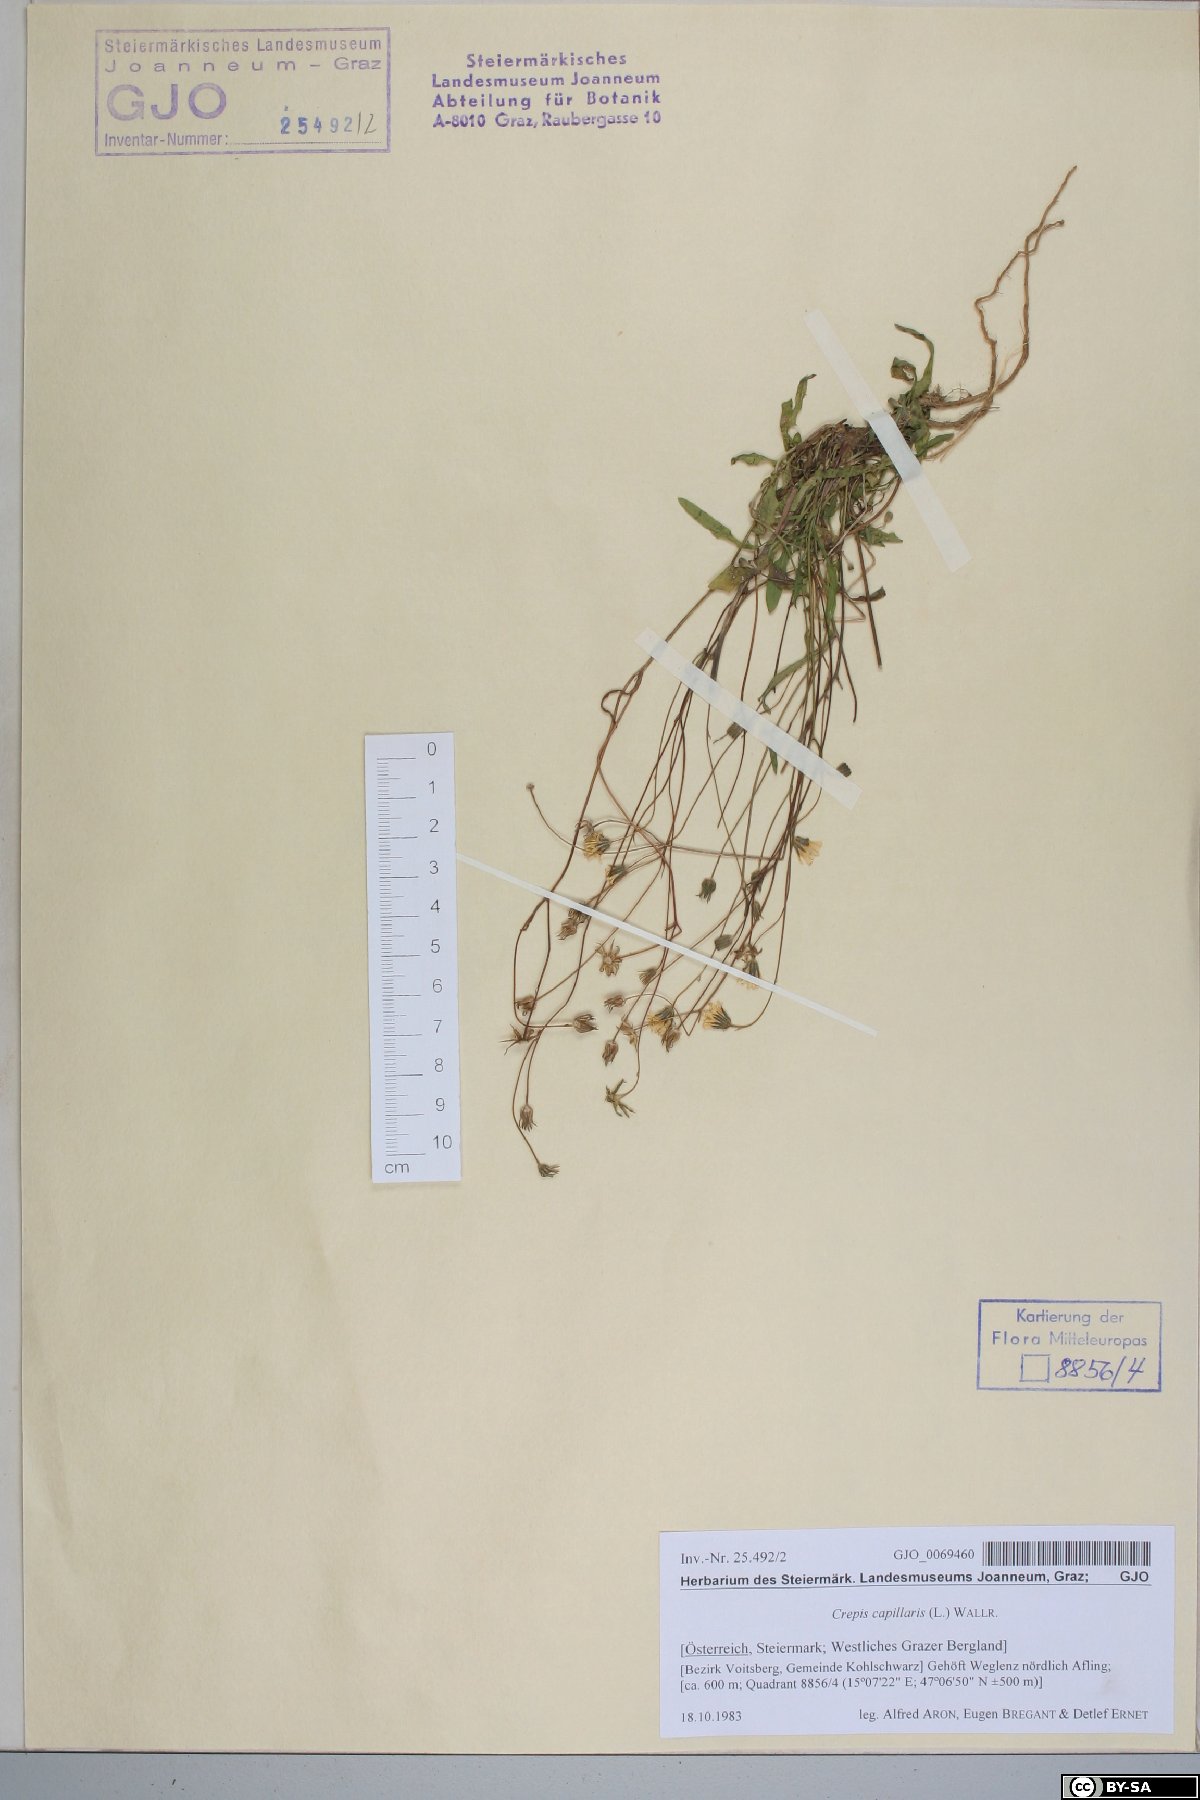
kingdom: Plantae
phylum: Tracheophyta
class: Magnoliopsida
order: Asterales
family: Asteraceae
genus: Crepis
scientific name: Crepis capillaris
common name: Smooth hawksbeard
